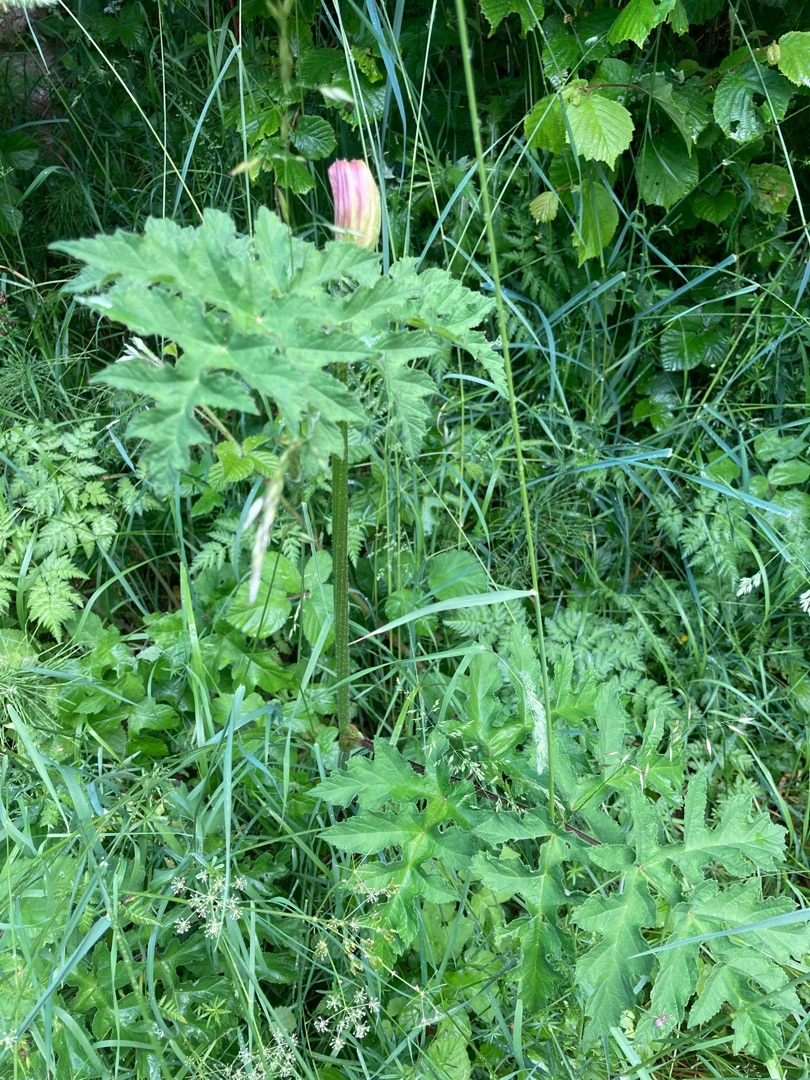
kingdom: Plantae
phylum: Tracheophyta
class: Magnoliopsida
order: Apiales
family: Apiaceae
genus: Heracleum
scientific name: Heracleum sphondylium
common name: Almindelig bjørneklo
